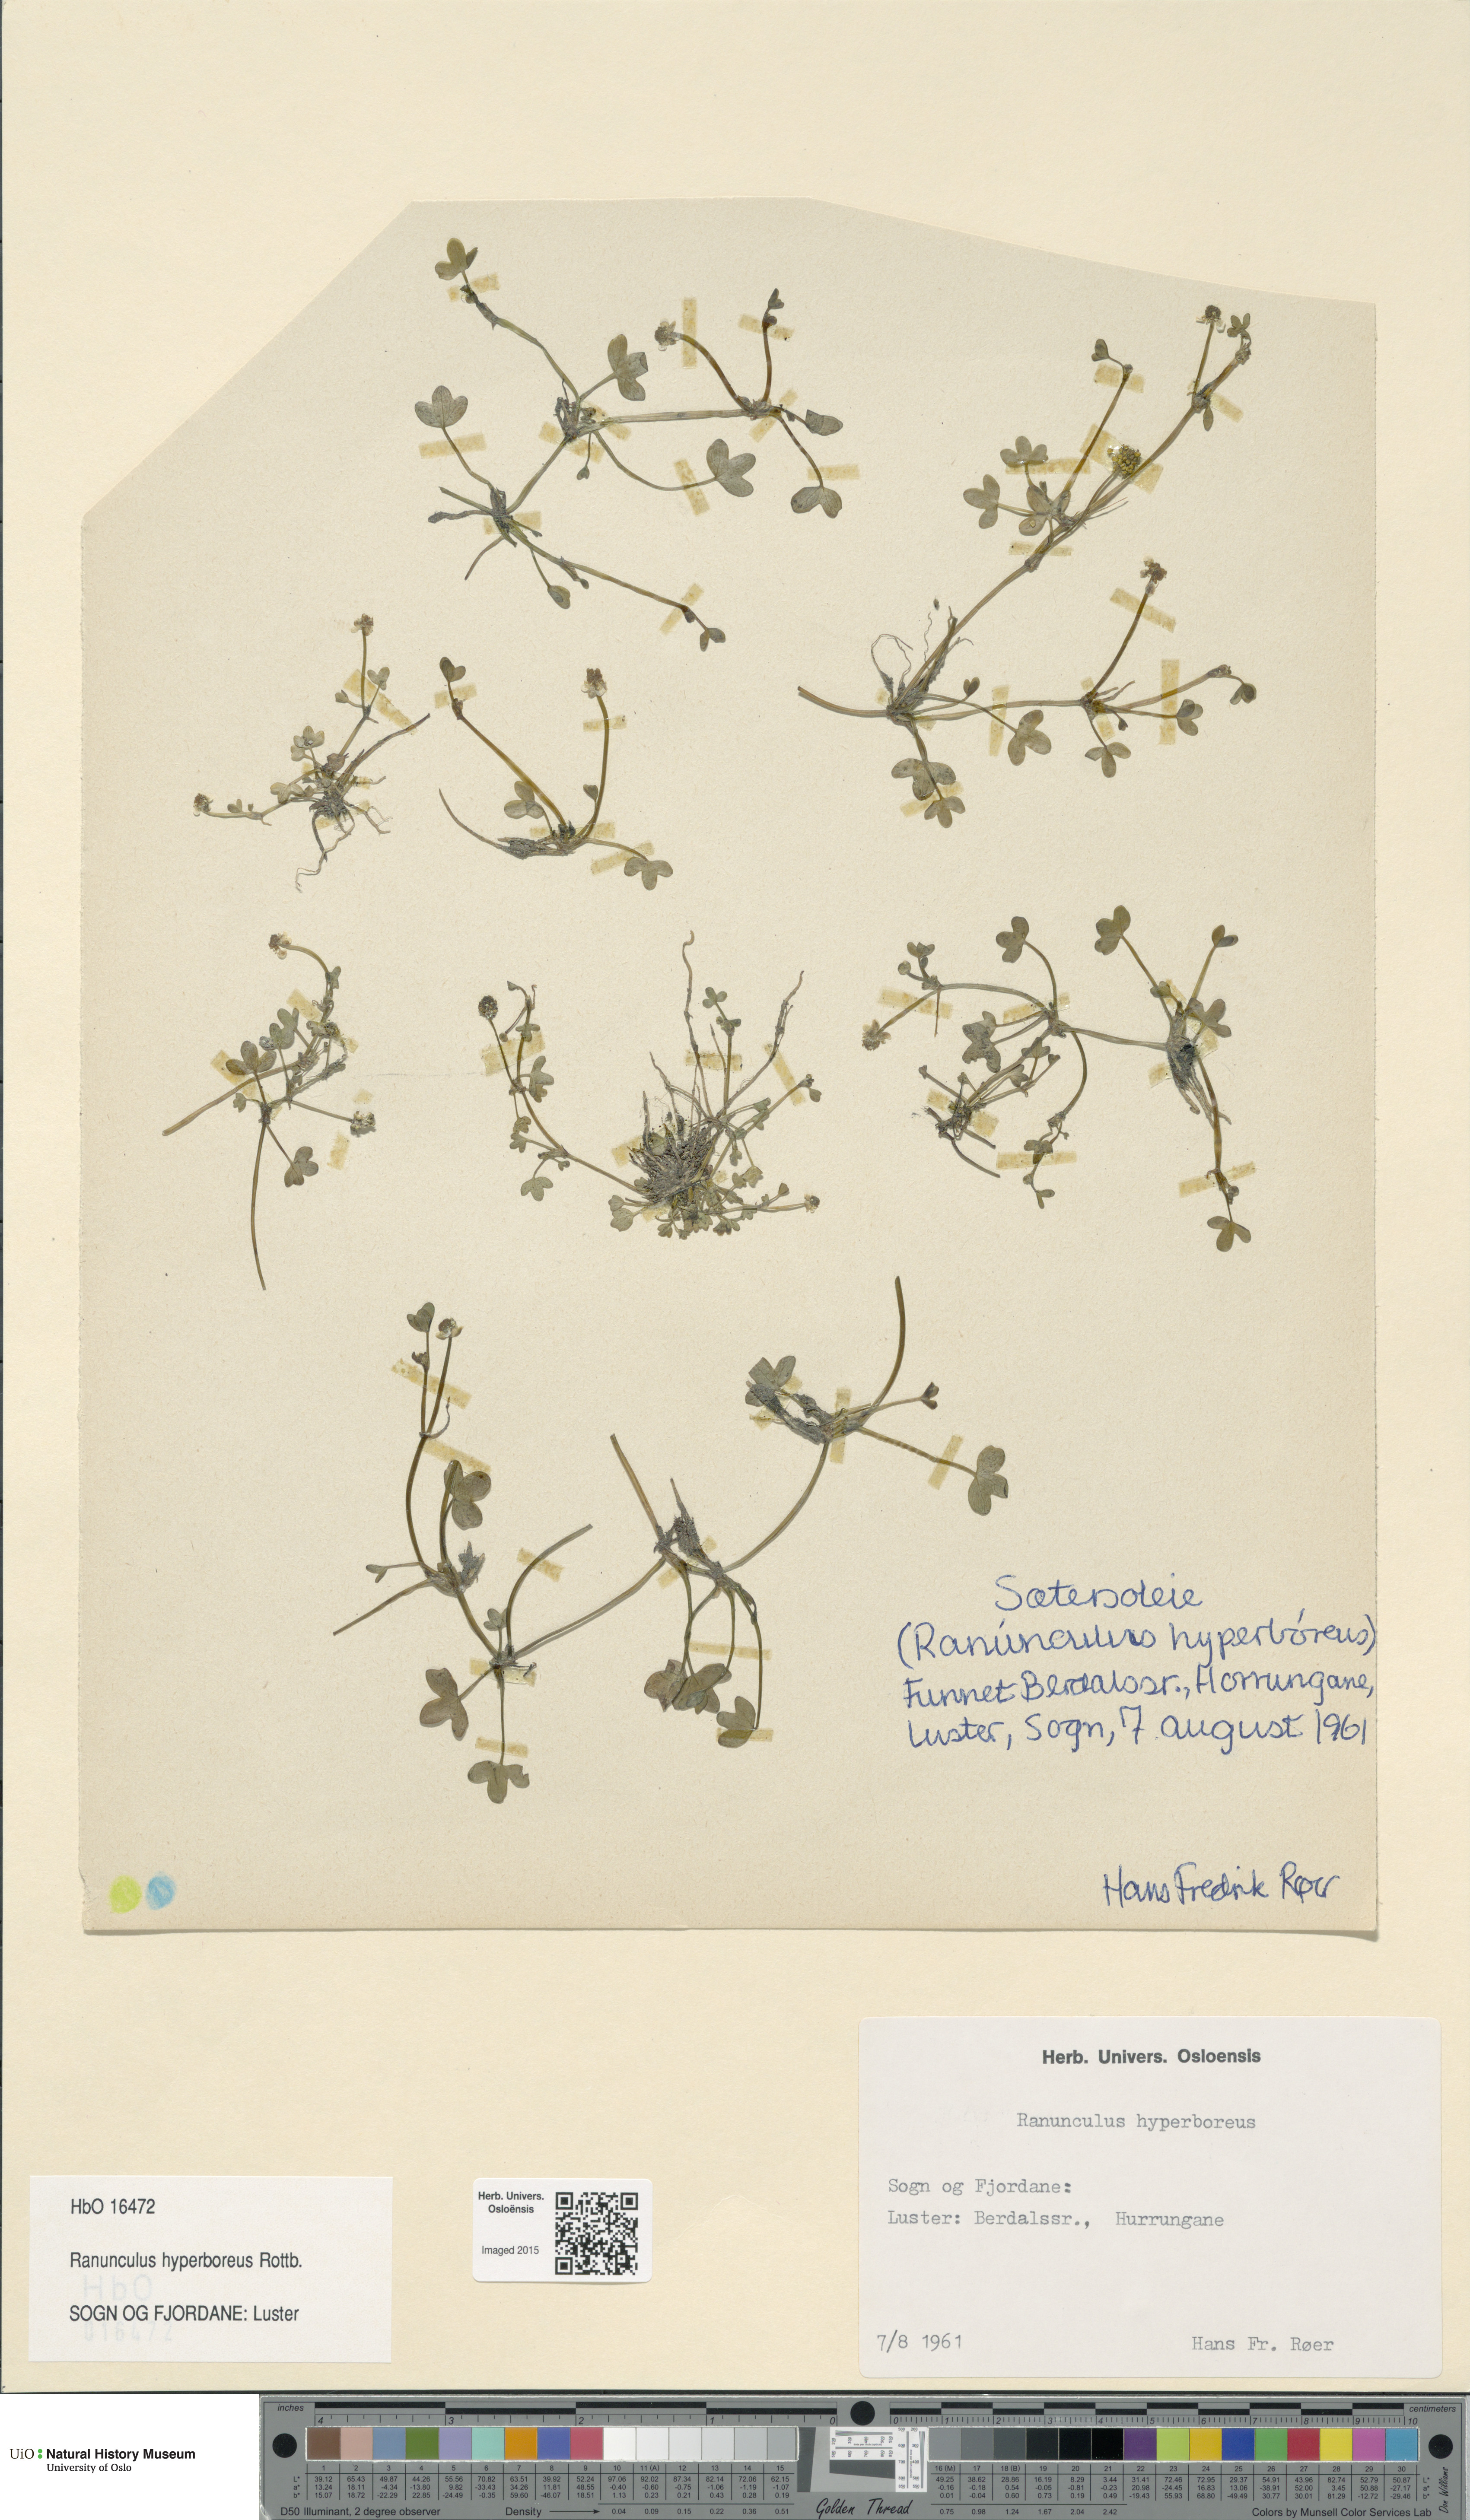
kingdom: Plantae
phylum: Tracheophyta
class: Magnoliopsida
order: Ranunculales
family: Ranunculaceae
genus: Ranunculus
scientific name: Ranunculus hyperboreus
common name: Arctic buttercup
